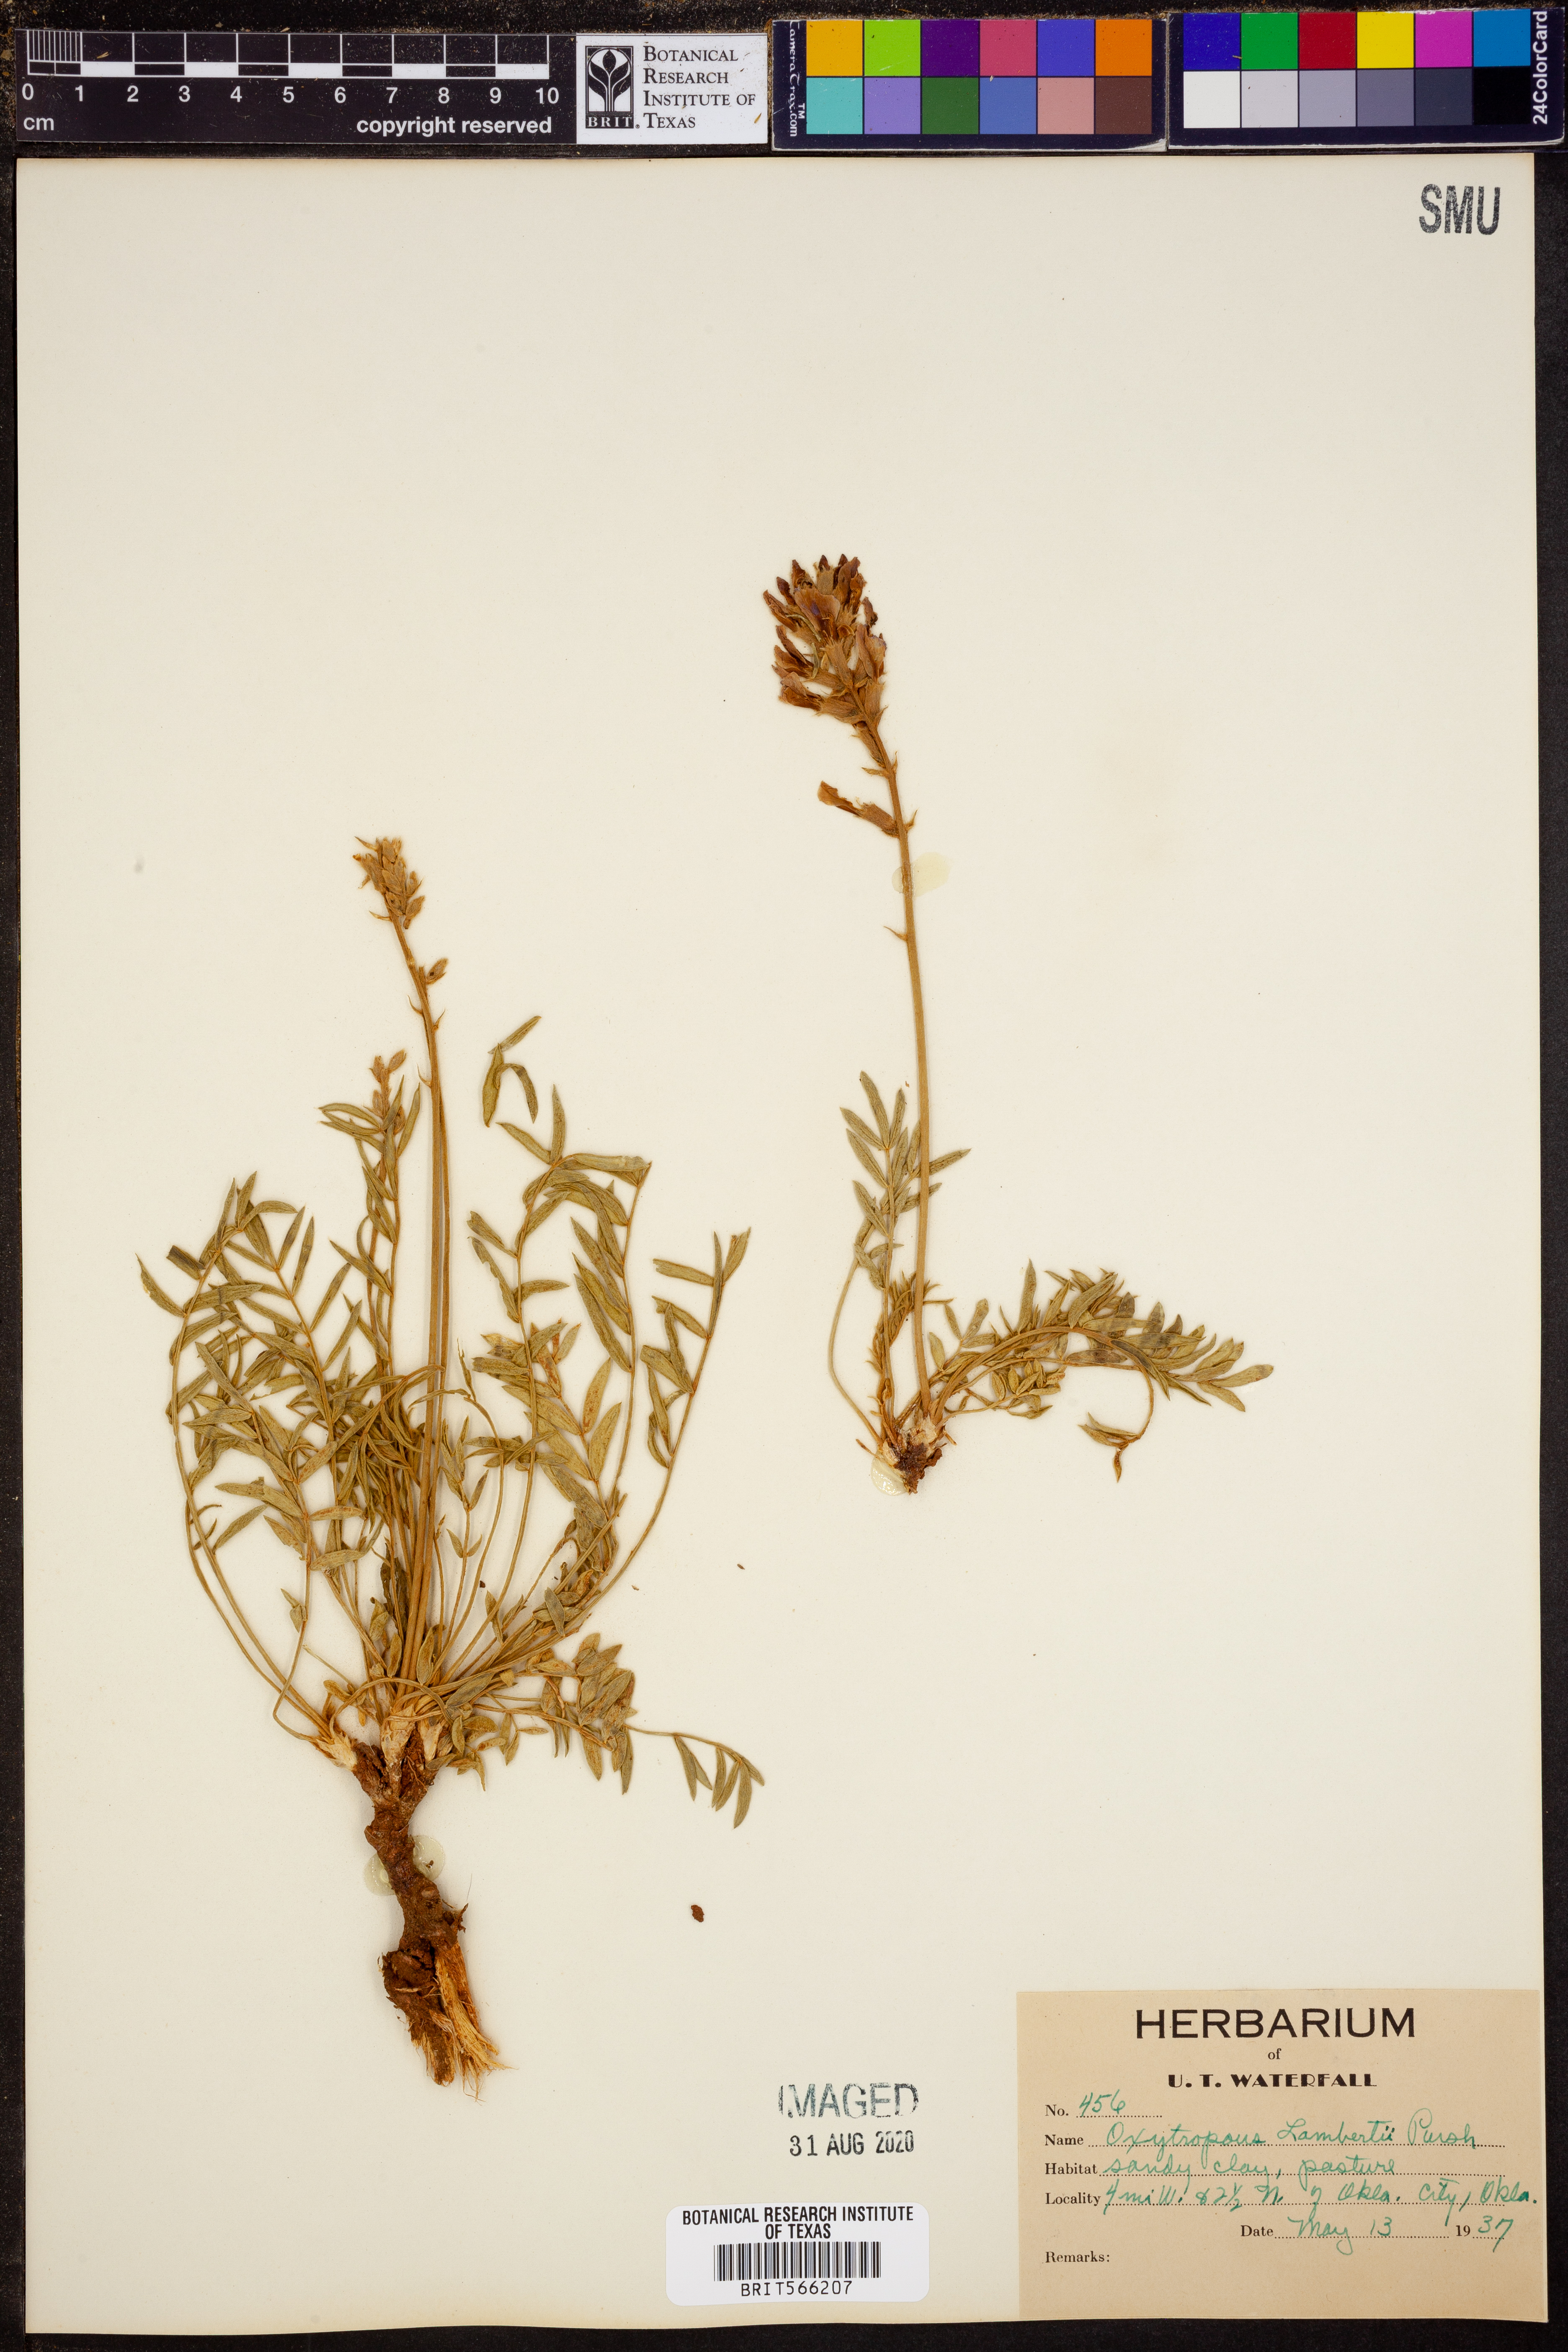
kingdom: Plantae
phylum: Tracheophyta
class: Magnoliopsida
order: Fabales
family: Fabaceae
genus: Oxytropis
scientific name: Oxytropis lambertii
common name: Purple locoweed
